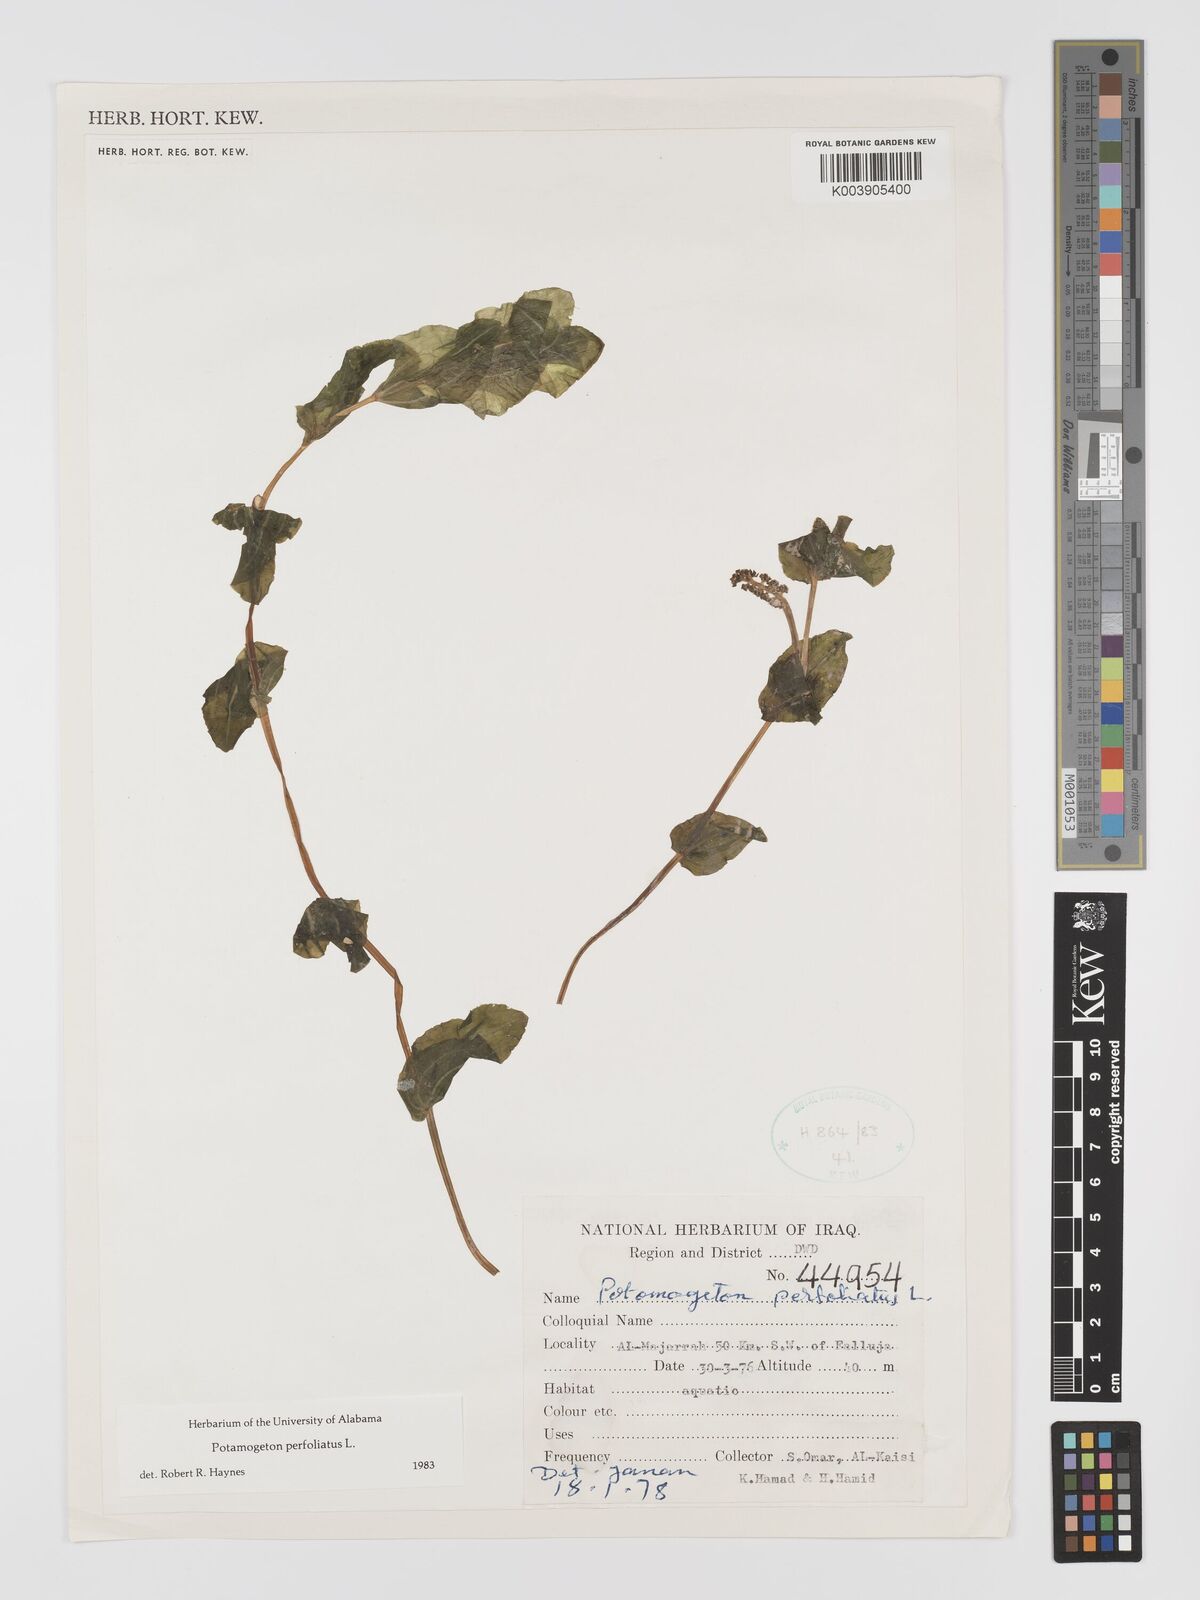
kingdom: Plantae
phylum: Tracheophyta
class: Liliopsida
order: Alismatales
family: Potamogetonaceae
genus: Potamogeton
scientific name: Potamogeton perfoliatus
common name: Perfoliate pondweed
